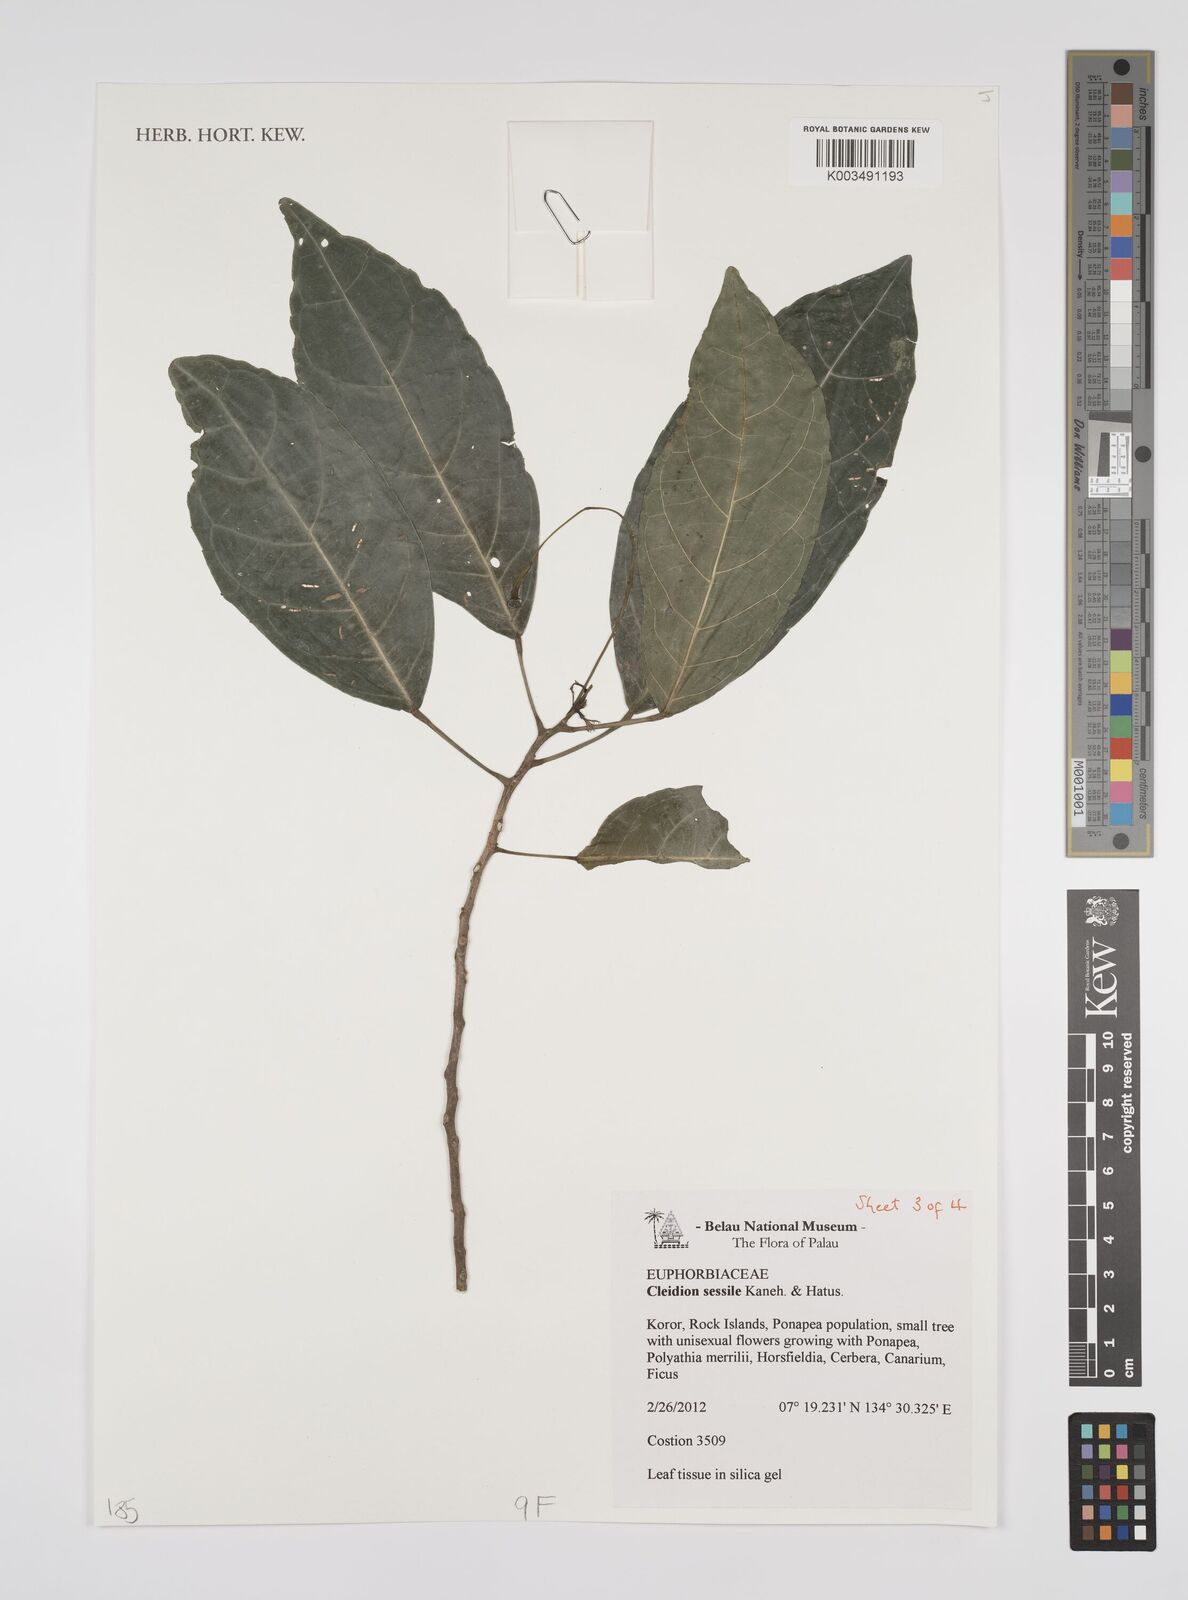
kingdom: Plantae
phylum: Tracheophyta
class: Magnoliopsida
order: Malpighiales
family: Euphorbiaceae
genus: Cleidion
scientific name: Cleidion sessile
